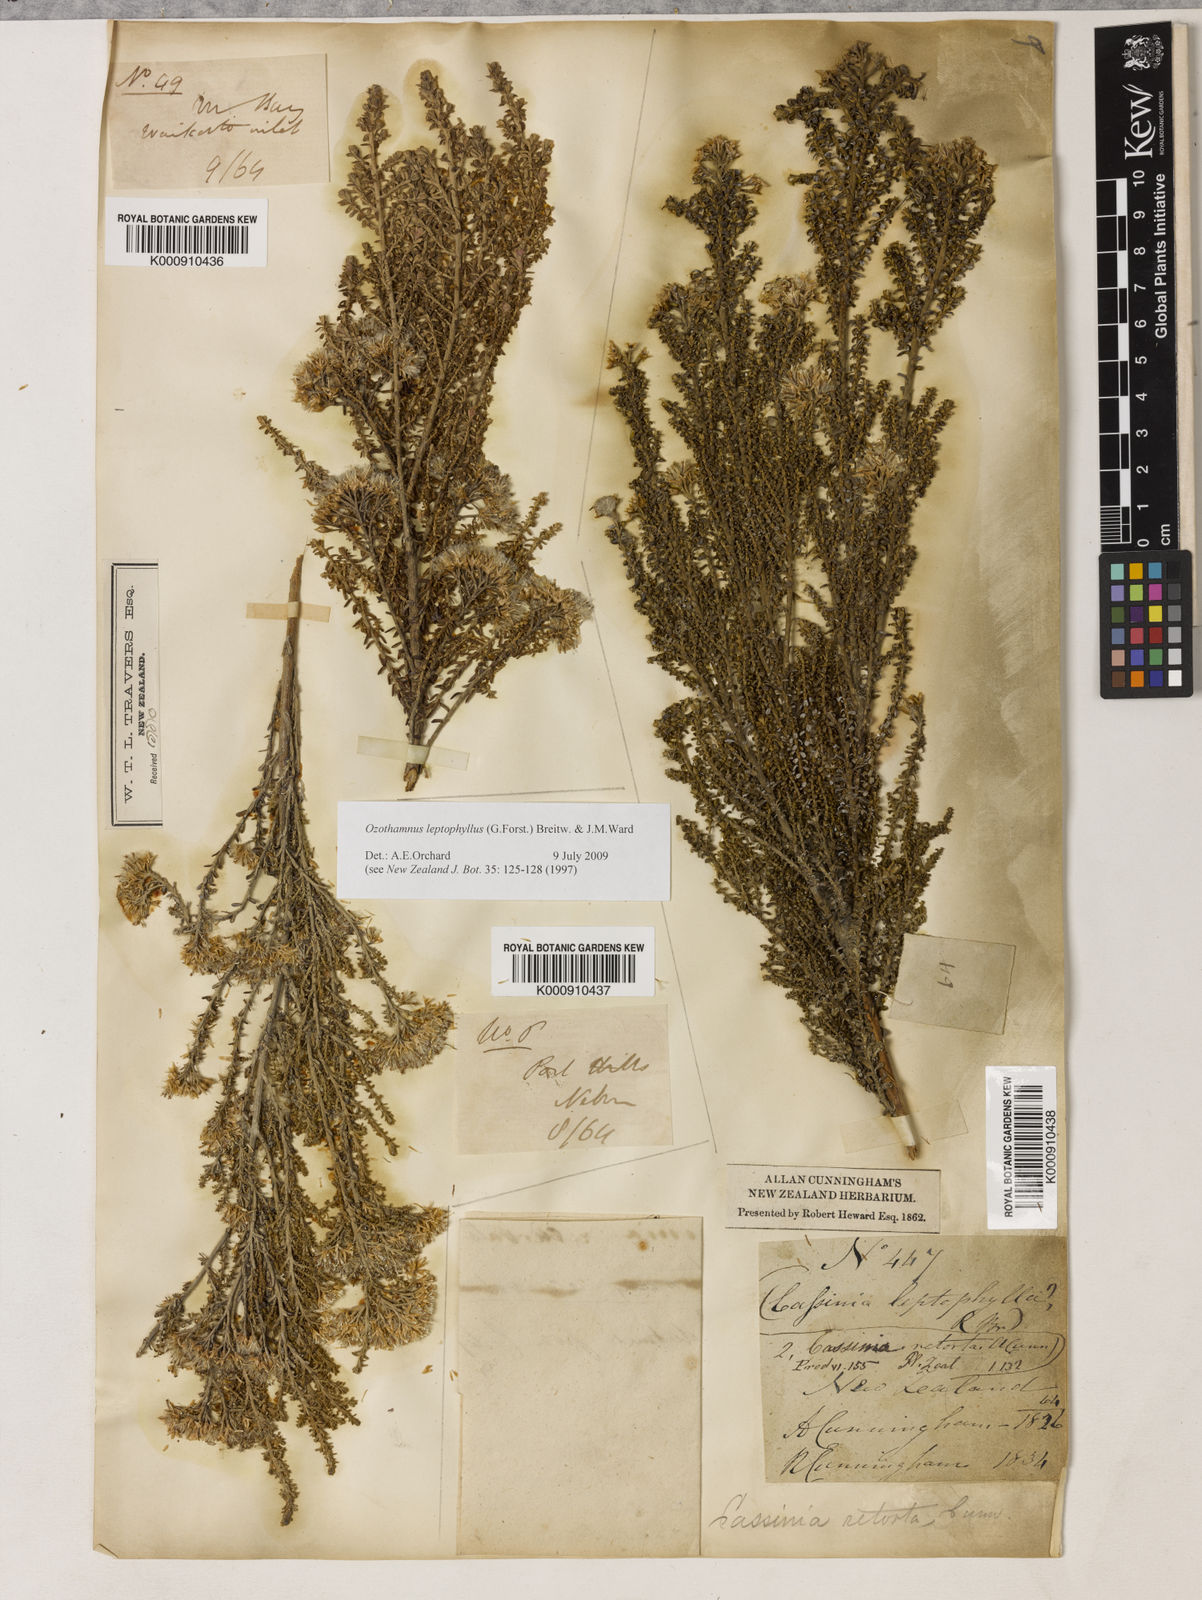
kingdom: Plantae
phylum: Tracheophyta
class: Magnoliopsida
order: Asterales
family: Asteraceae
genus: Ozothamnus
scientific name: Ozothamnus leptophyllus
